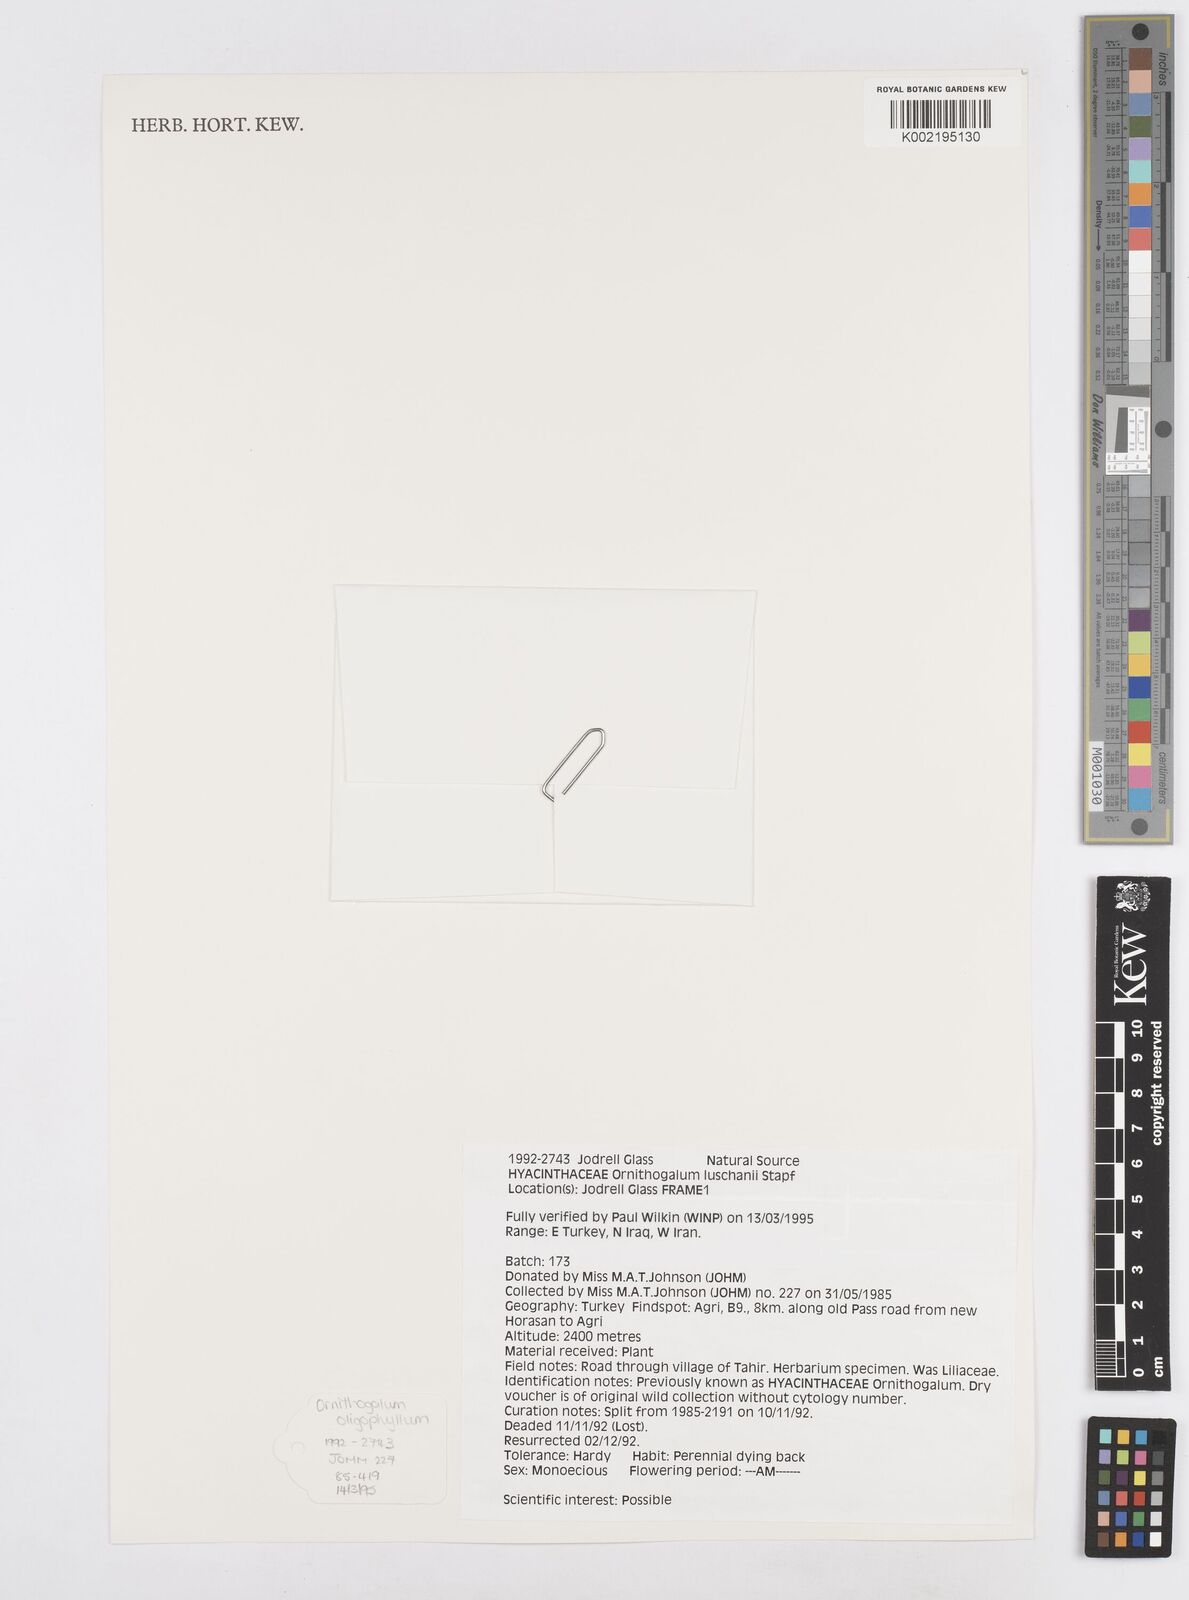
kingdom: Plantae
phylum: Tracheophyta
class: Liliopsida
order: Asparagales
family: Asparagaceae
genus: Ornithogalum
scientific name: Ornithogalum luschanii
